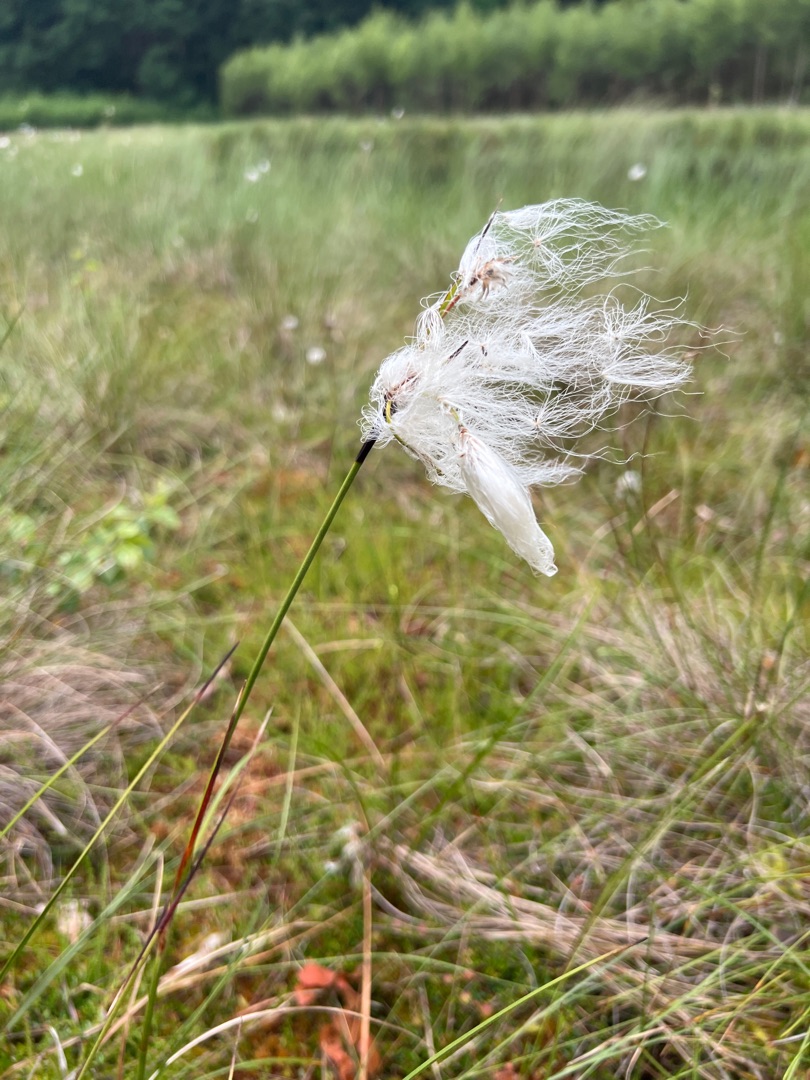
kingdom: Plantae
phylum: Tracheophyta
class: Liliopsida
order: Poales
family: Cyperaceae
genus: Eriophorum
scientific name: Eriophorum angustifolium
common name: Smalbladet kæruld
